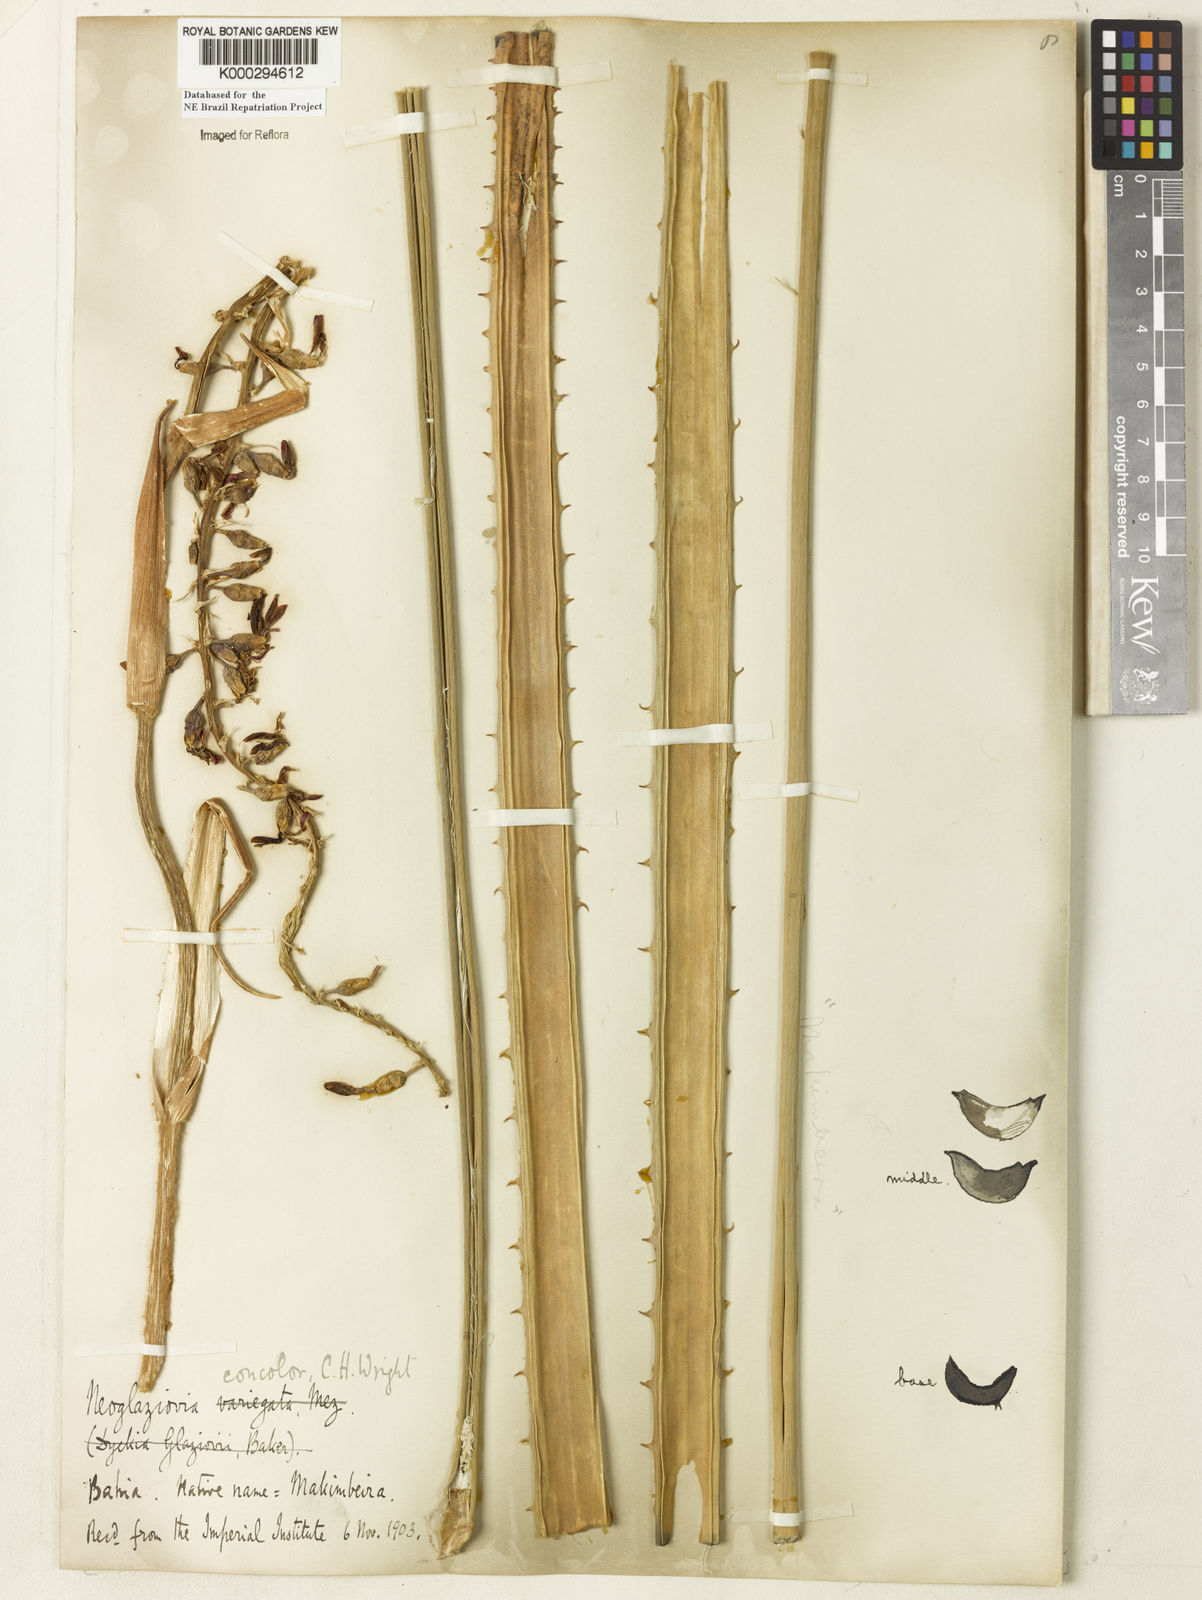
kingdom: Plantae
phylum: Tracheophyta
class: Liliopsida
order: Poales
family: Bromeliaceae
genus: Neoglaziovia
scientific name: Neoglaziovia concolor
